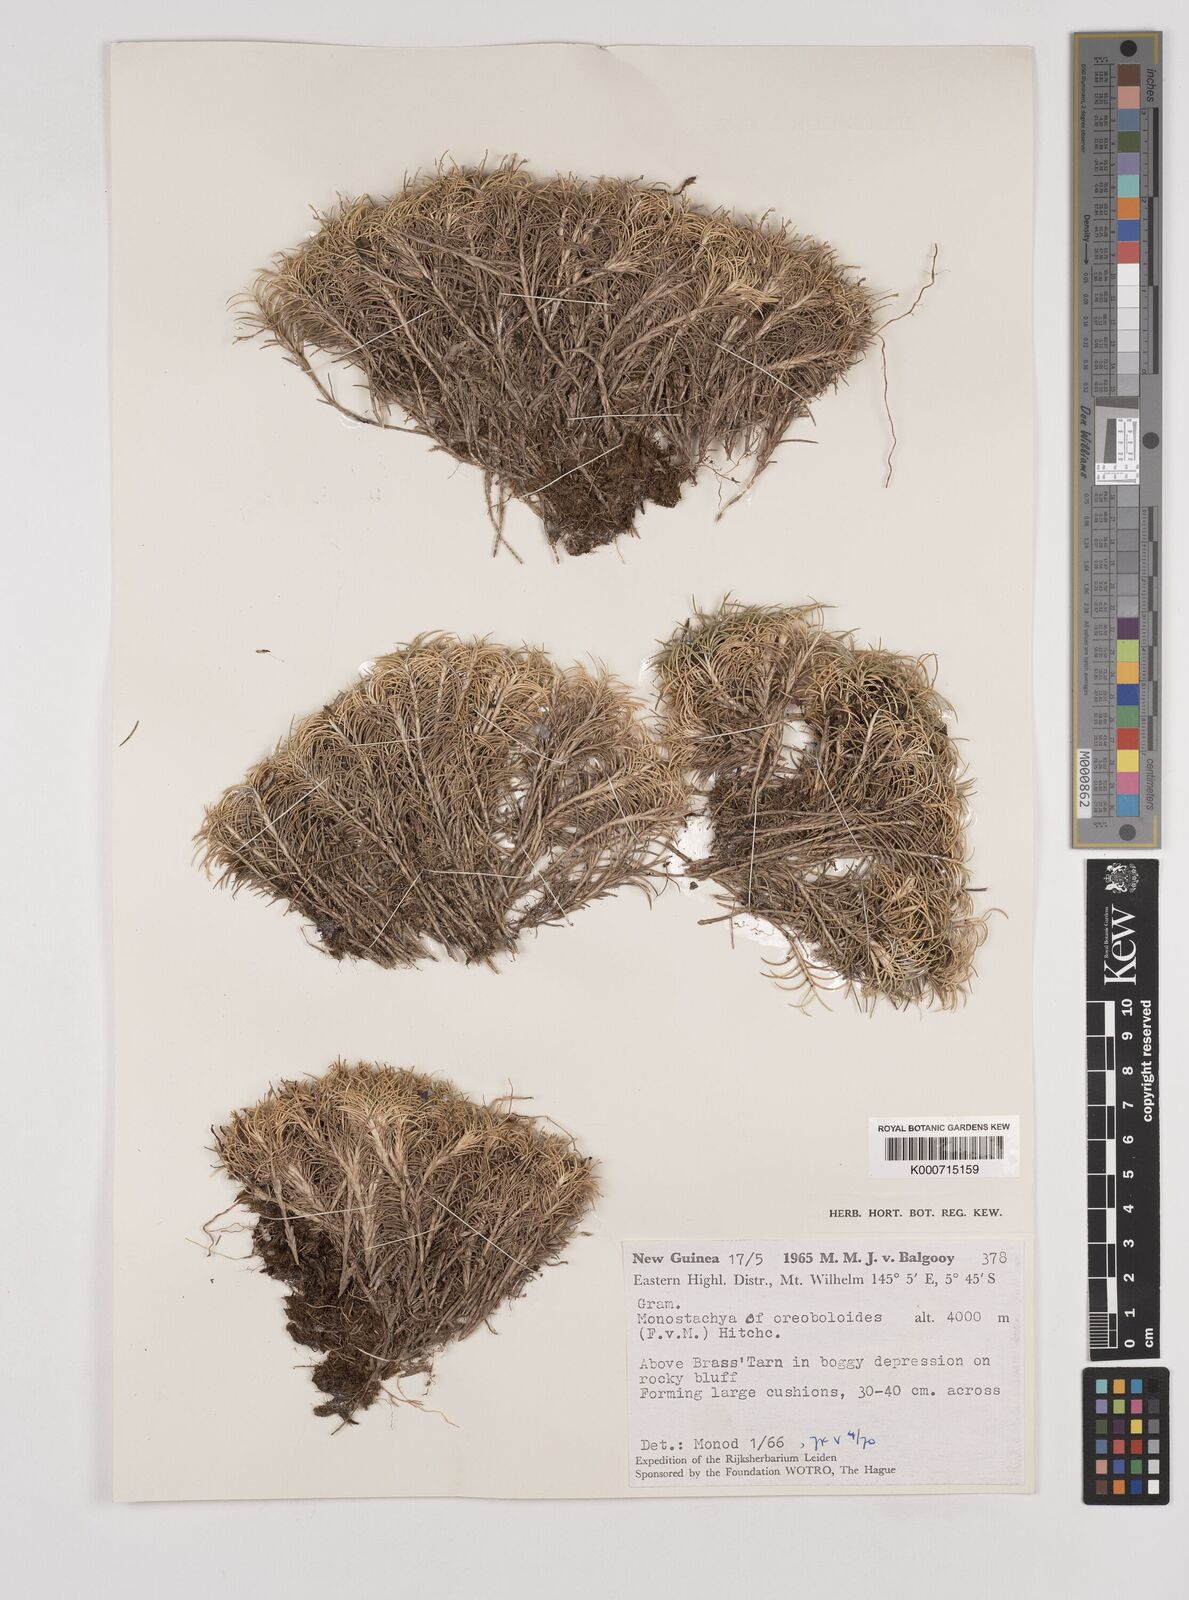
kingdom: Plantae
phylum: Tracheophyta
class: Liliopsida
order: Poales
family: Poaceae
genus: Rytidosperma
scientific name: Rytidosperma oreoboloides
